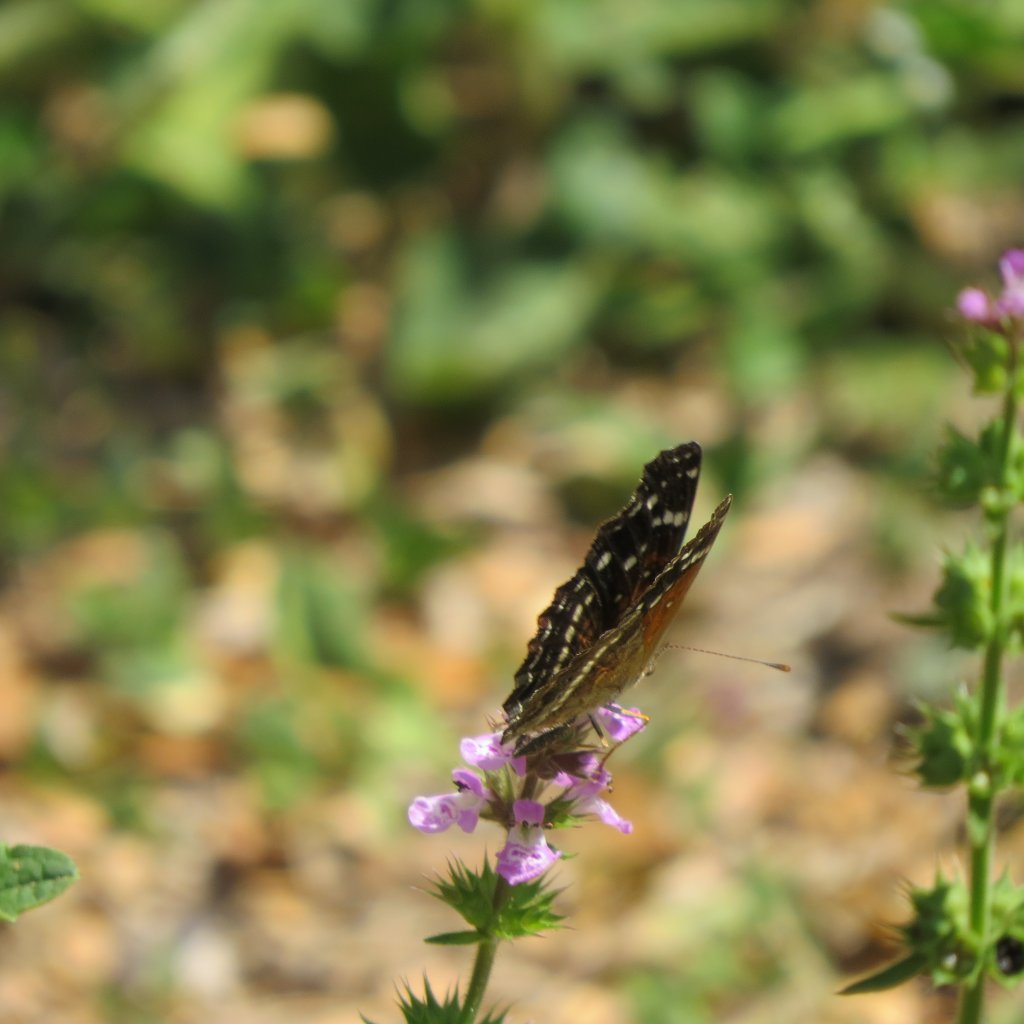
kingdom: Animalia
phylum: Arthropoda
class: Insecta
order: Lepidoptera
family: Nymphalidae
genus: Anthanassa
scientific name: Anthanassa texana
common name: Texan Crescent
